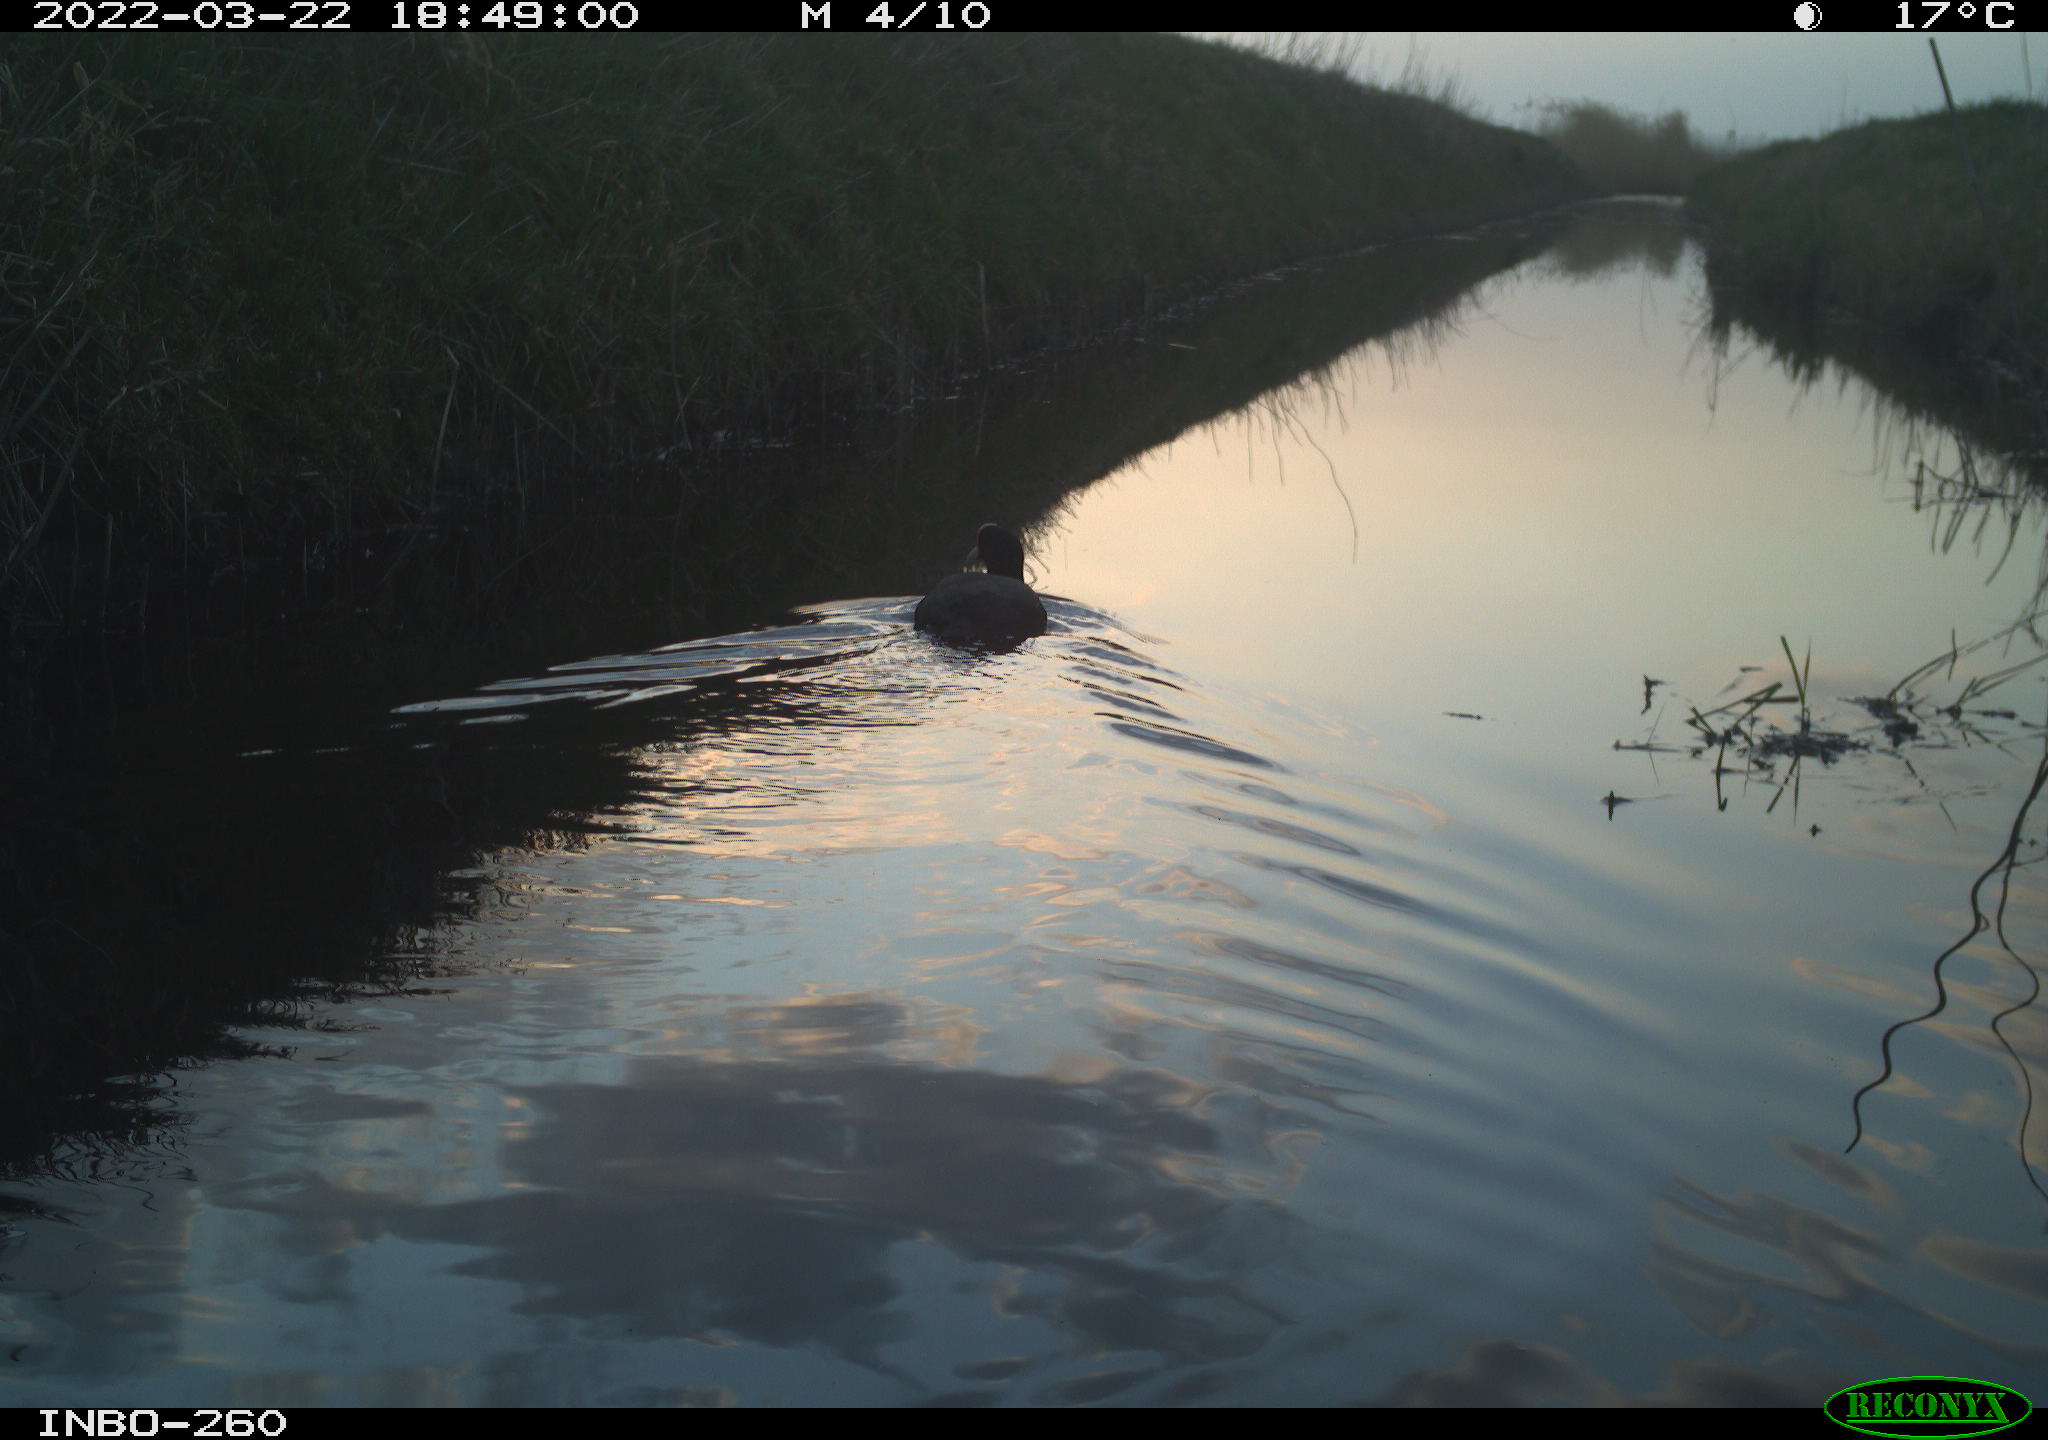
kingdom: Animalia
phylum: Chordata
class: Aves
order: Gruiformes
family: Rallidae
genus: Fulica
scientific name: Fulica atra
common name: Eurasian coot
